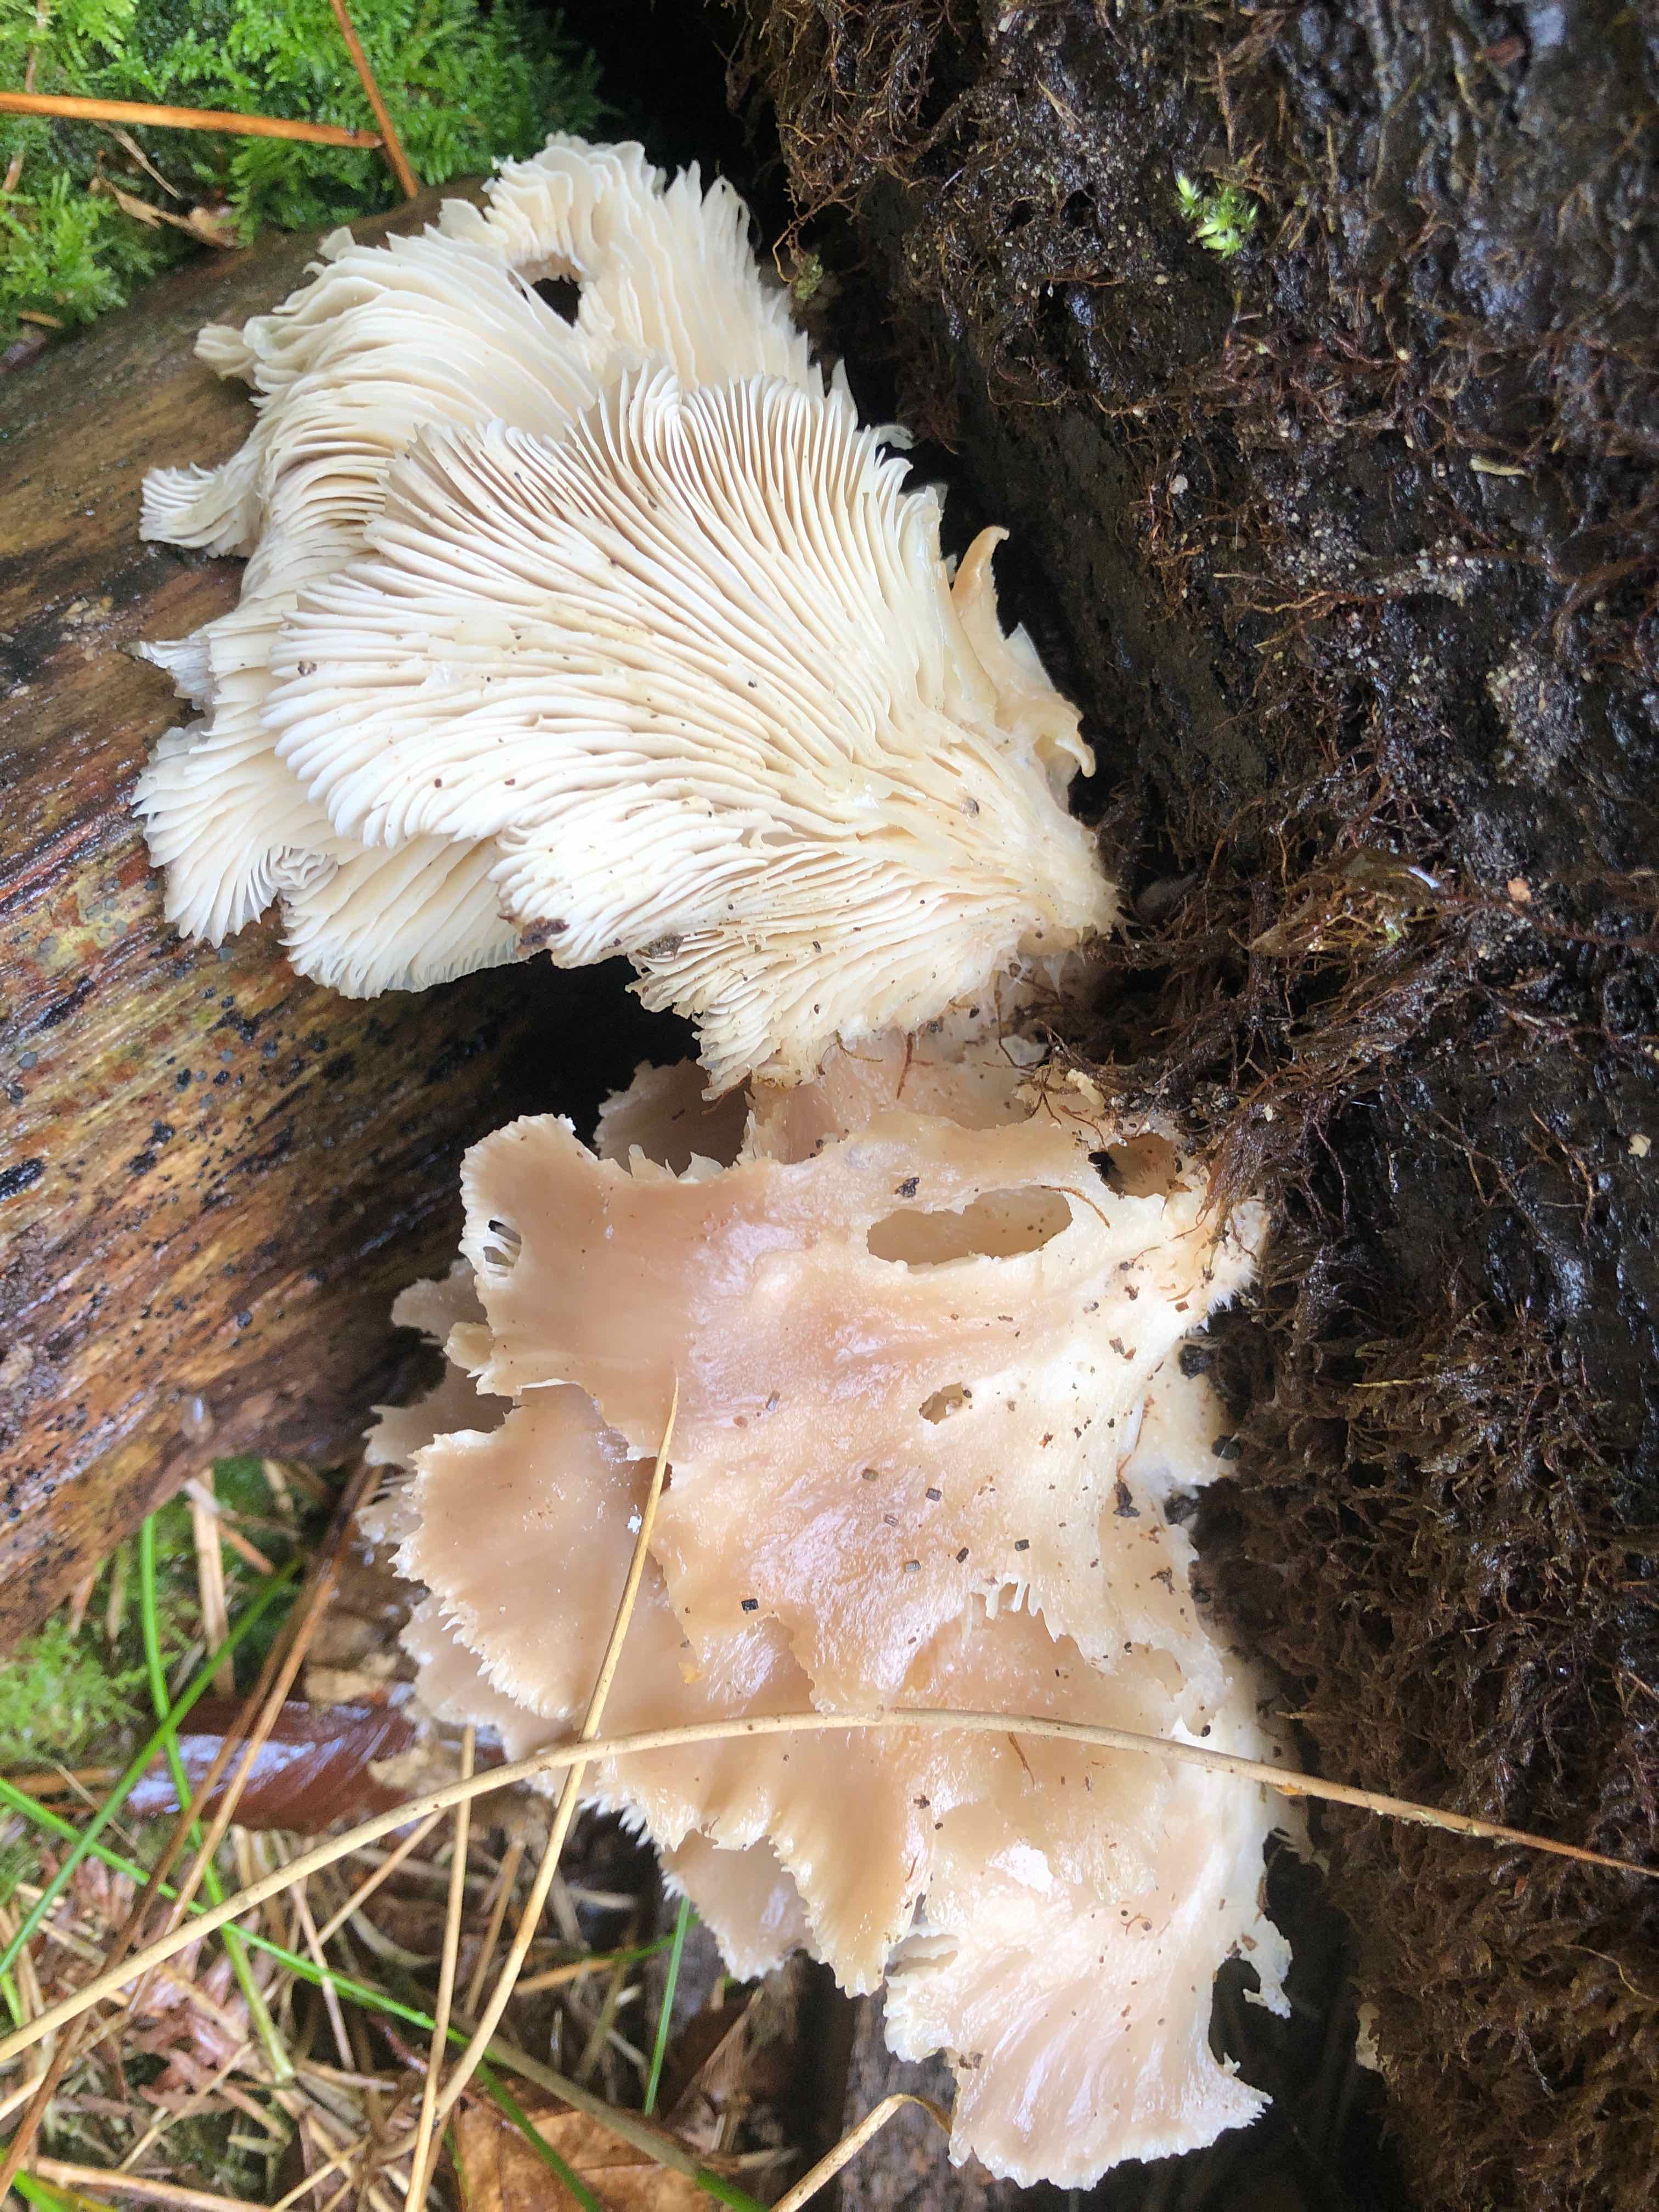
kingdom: Fungi
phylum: Basidiomycota
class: Agaricomycetes
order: Agaricales
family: Pleurotaceae
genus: Pleurotus
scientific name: Pleurotus ostreatus
